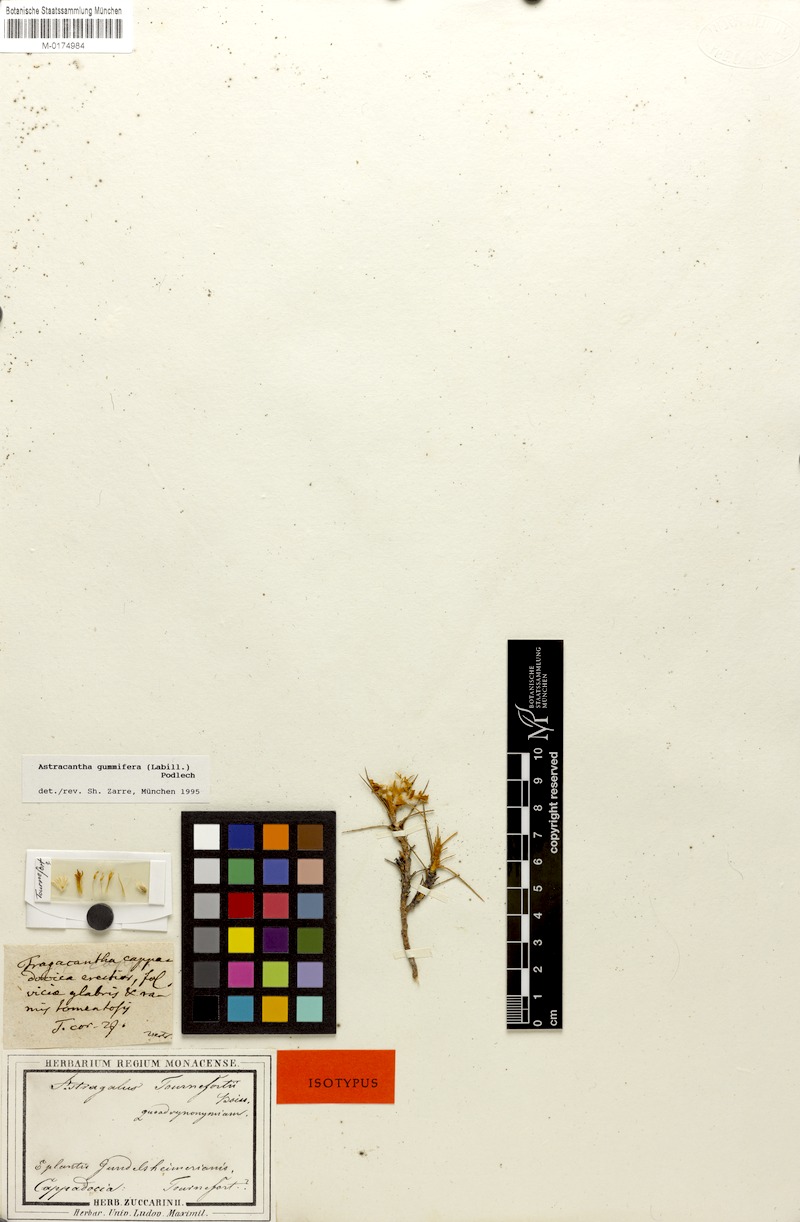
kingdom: Plantae
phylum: Tracheophyta
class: Magnoliopsida
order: Fabales
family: Fabaceae
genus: Astragalus
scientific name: Astragalus gummifer
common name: Tragacanth
